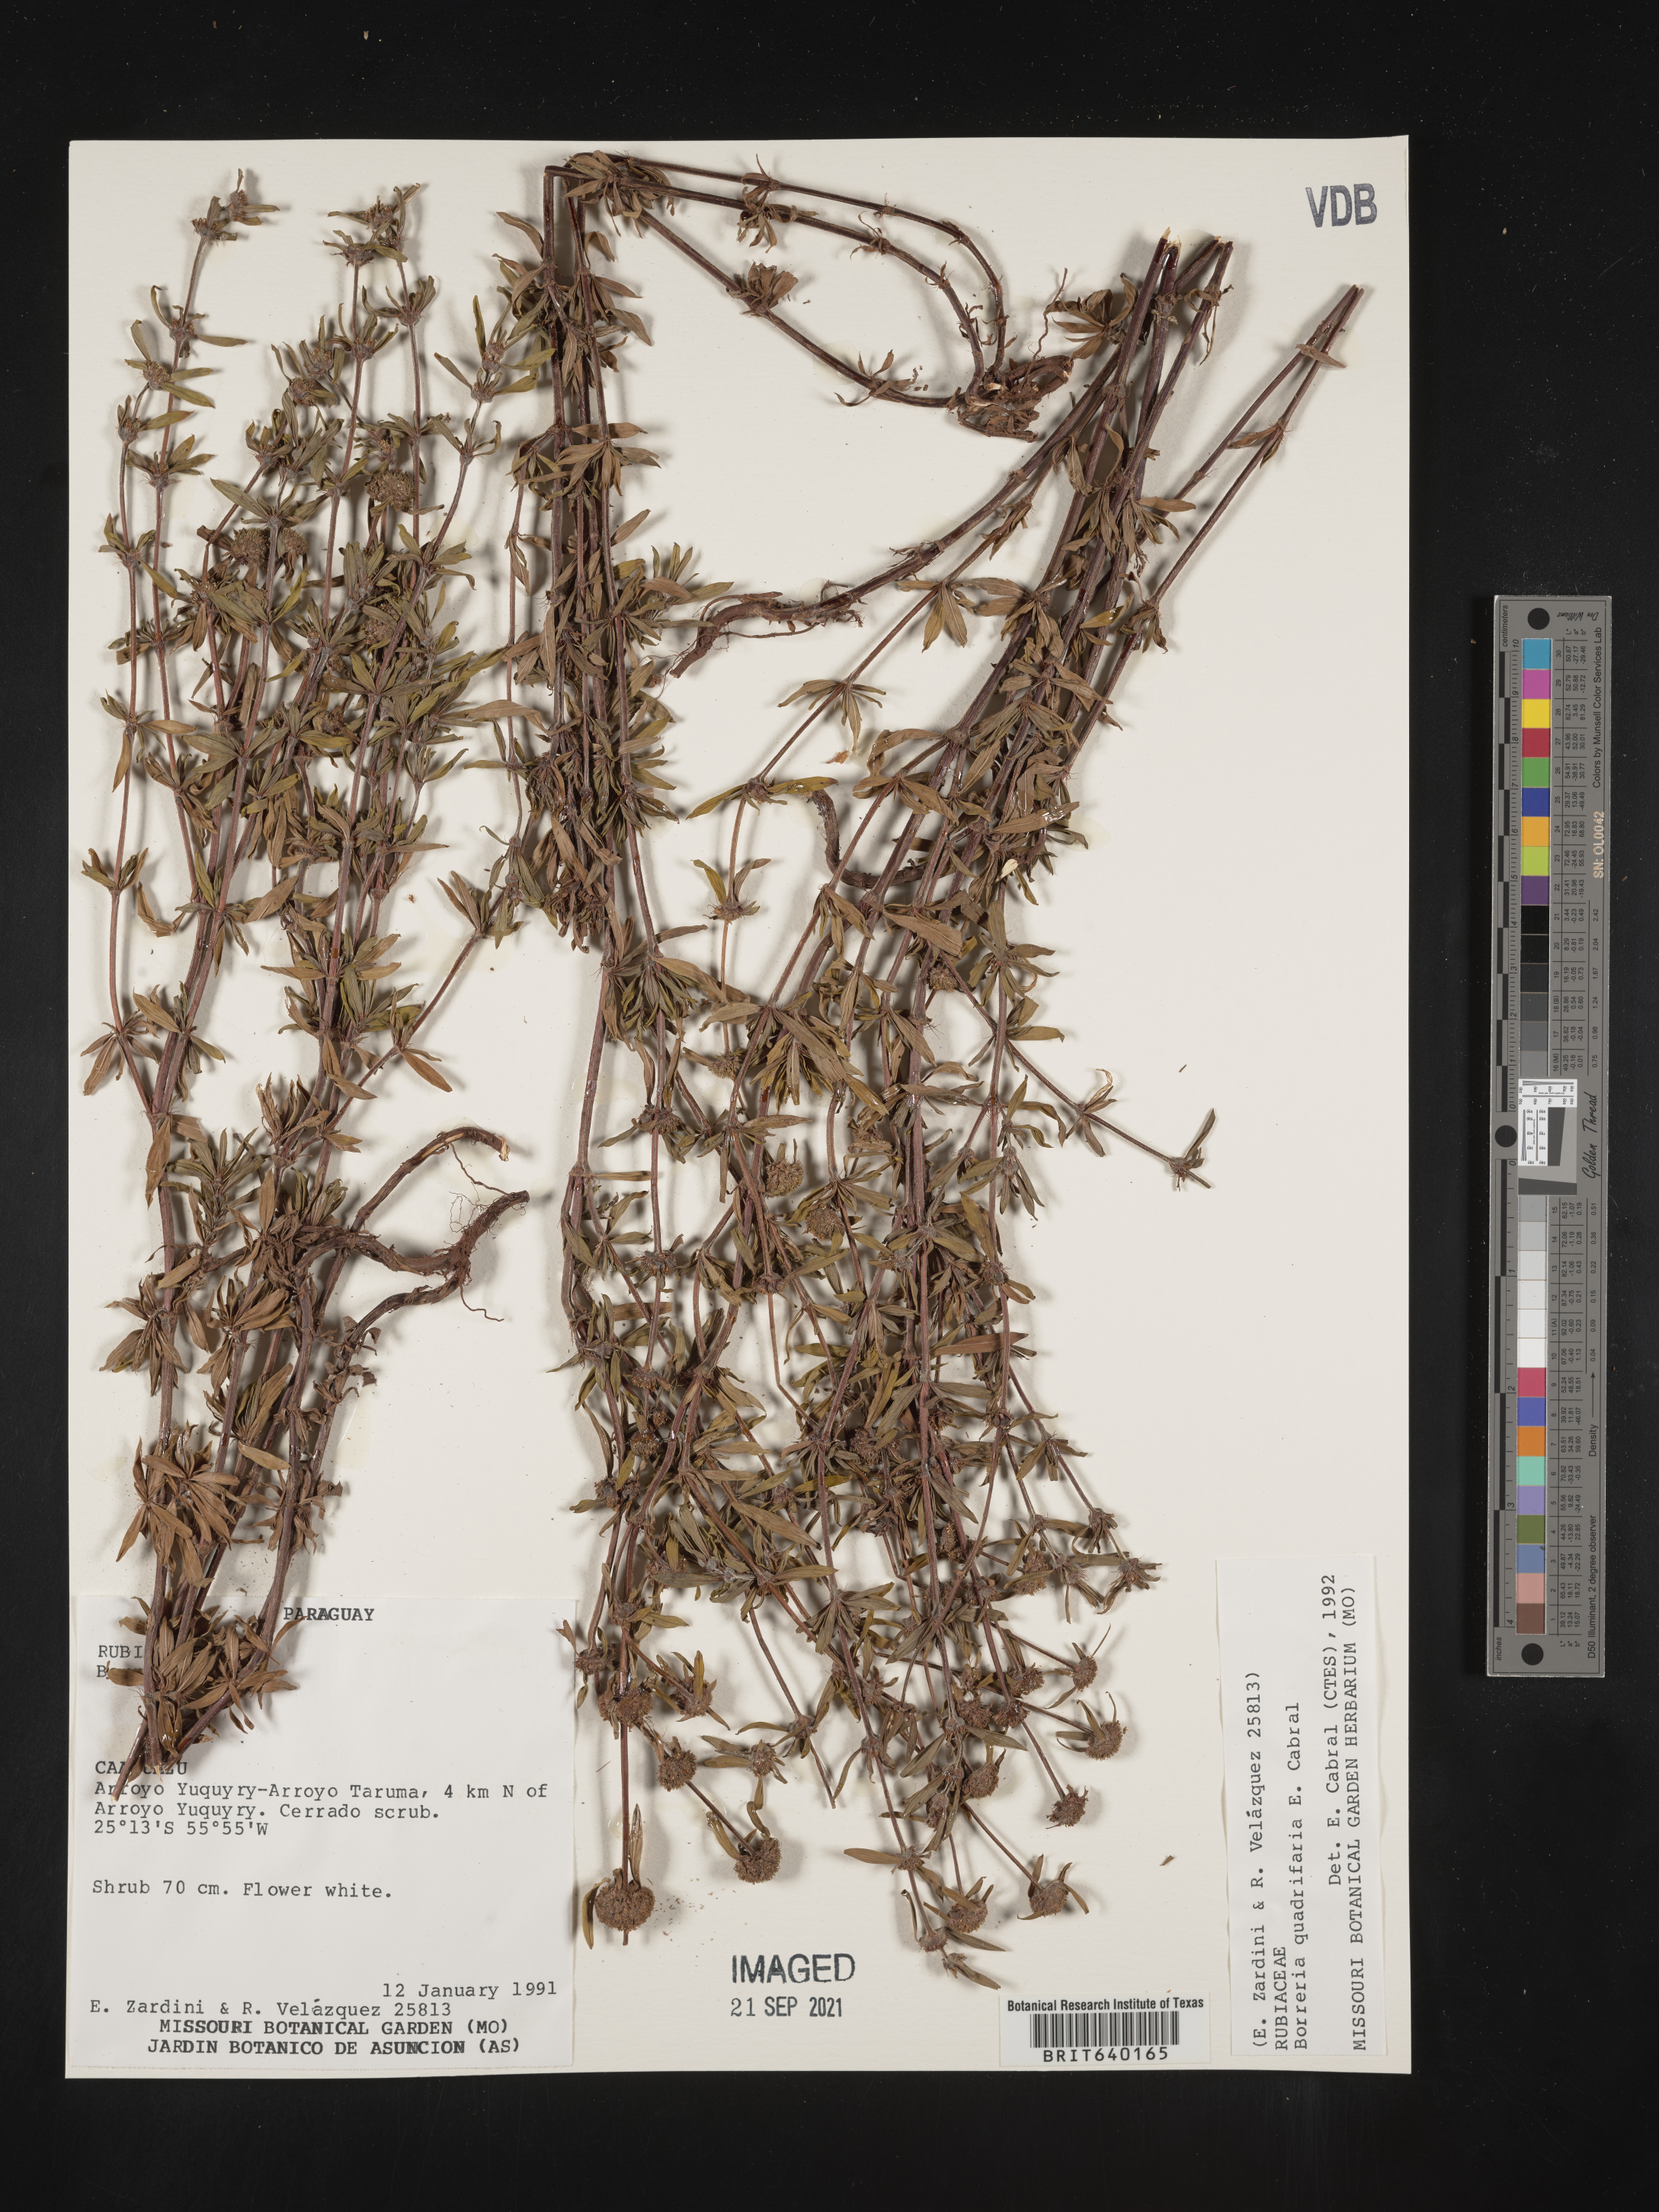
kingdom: Plantae
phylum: Tracheophyta
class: Magnoliopsida
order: Gentianales
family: Rubiaceae
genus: Spermacoce
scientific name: Spermacoce
